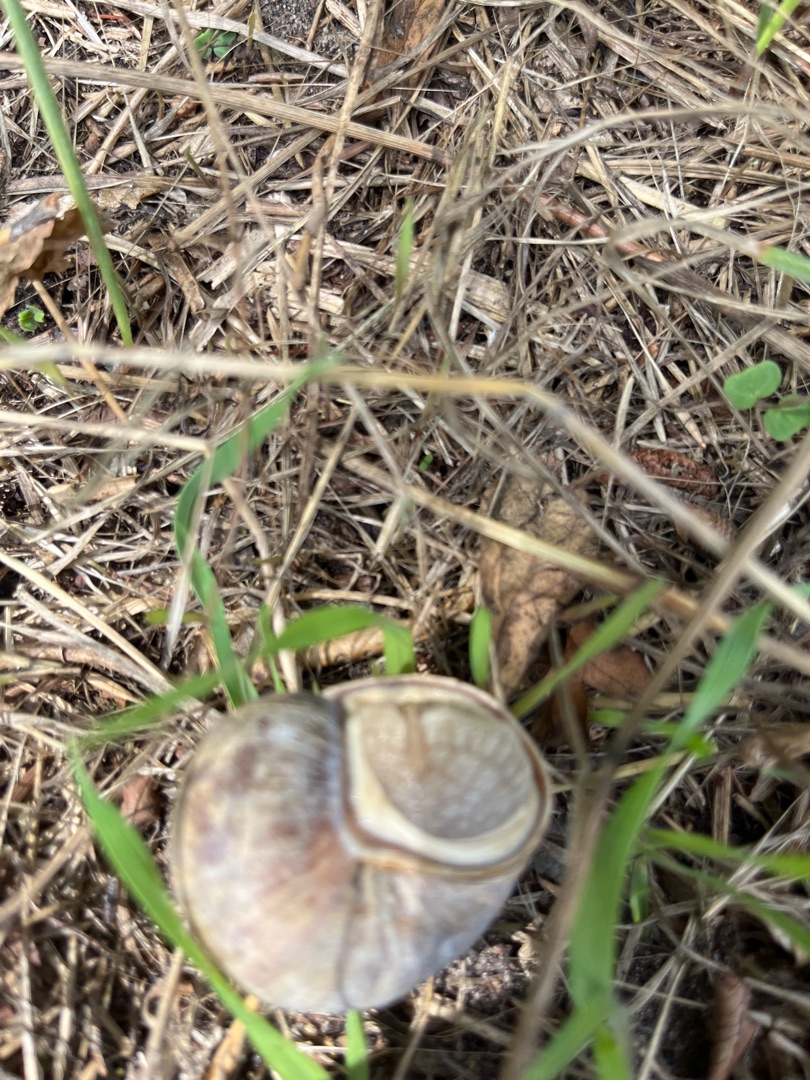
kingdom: Animalia
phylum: Mollusca
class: Gastropoda
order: Stylommatophora
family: Helicidae
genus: Helix
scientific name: Helix pomatia
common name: Vinbjergsnegl
